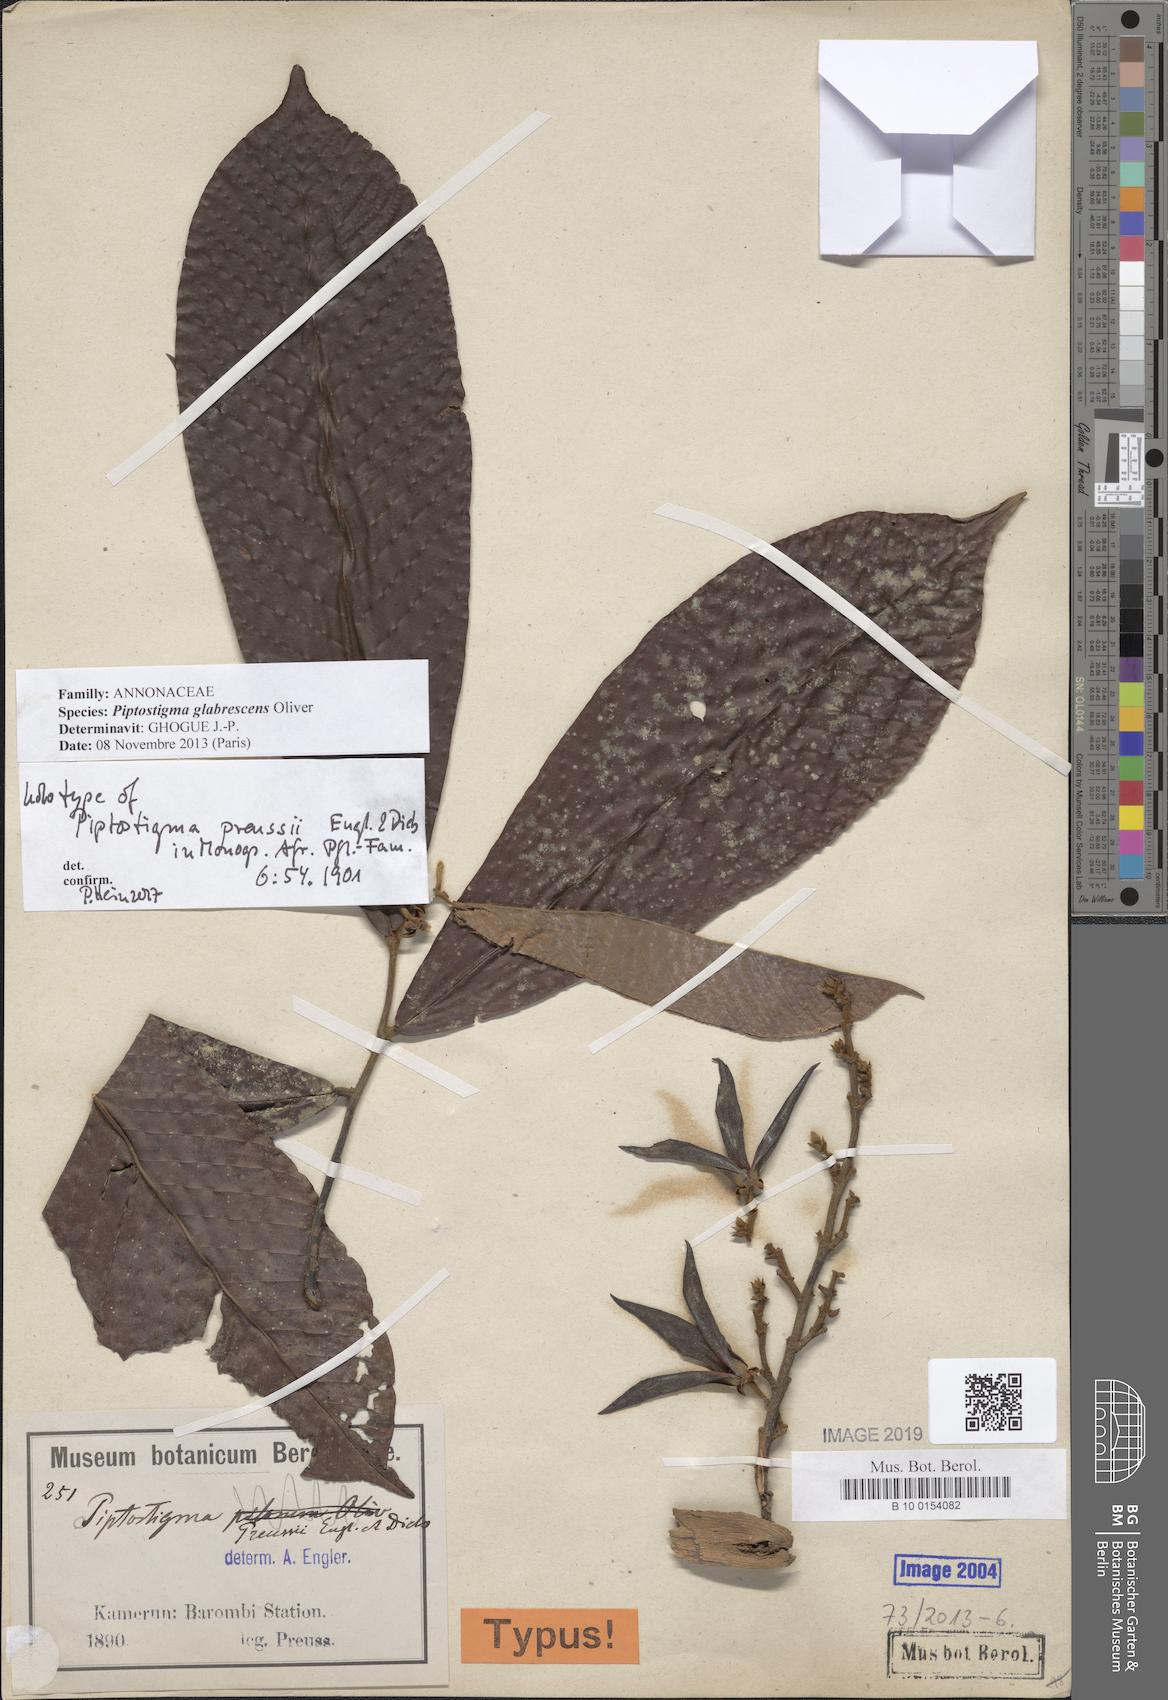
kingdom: Plantae
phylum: Tracheophyta
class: Magnoliopsida
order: Magnoliales
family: Annonaceae
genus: Piptostigma
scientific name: Piptostigma glabrescens
